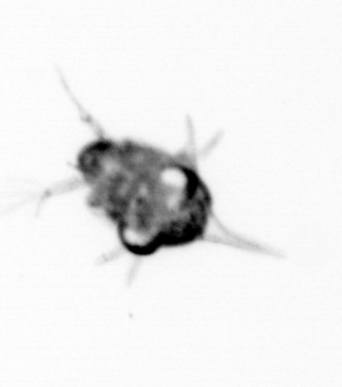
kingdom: Animalia
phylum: Arthropoda
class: Malacostraca
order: Decapoda
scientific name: Decapoda
